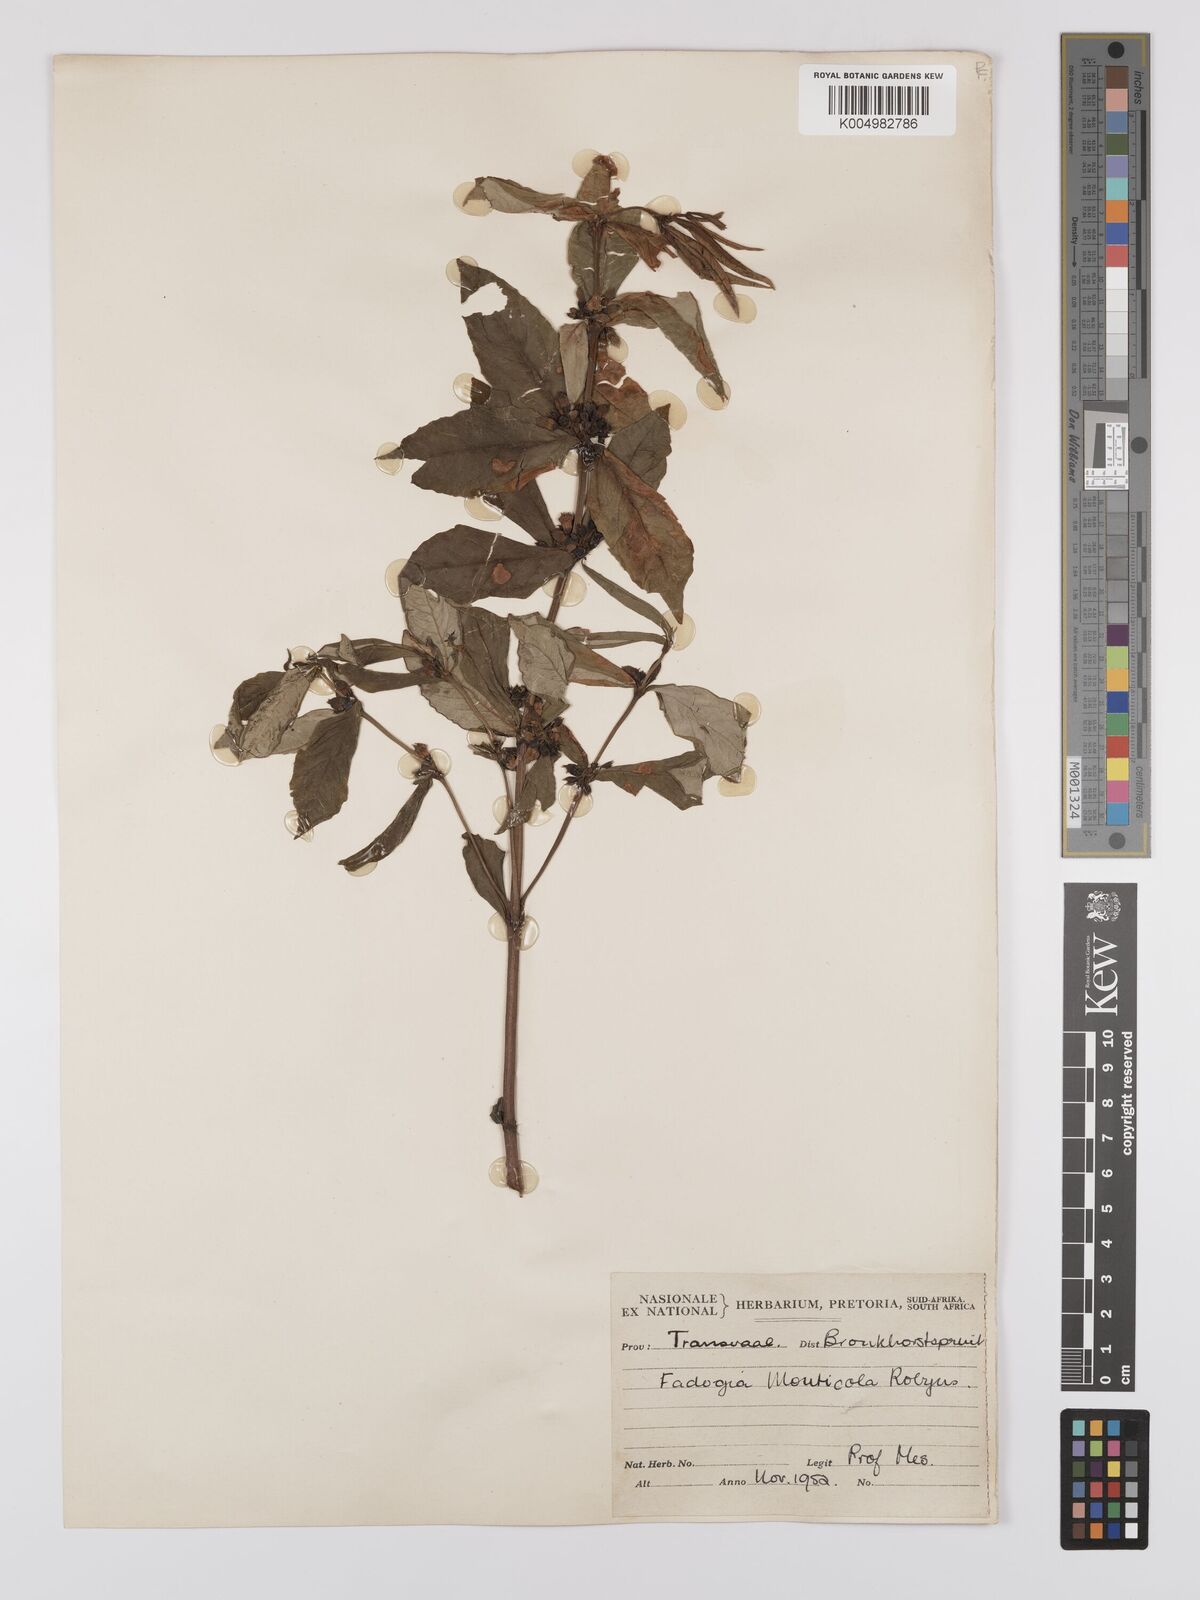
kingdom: Plantae
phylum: Tracheophyta
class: Magnoliopsida
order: Gentianales
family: Rubiaceae
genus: Fadogia
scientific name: Fadogia homblei
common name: Wild date
